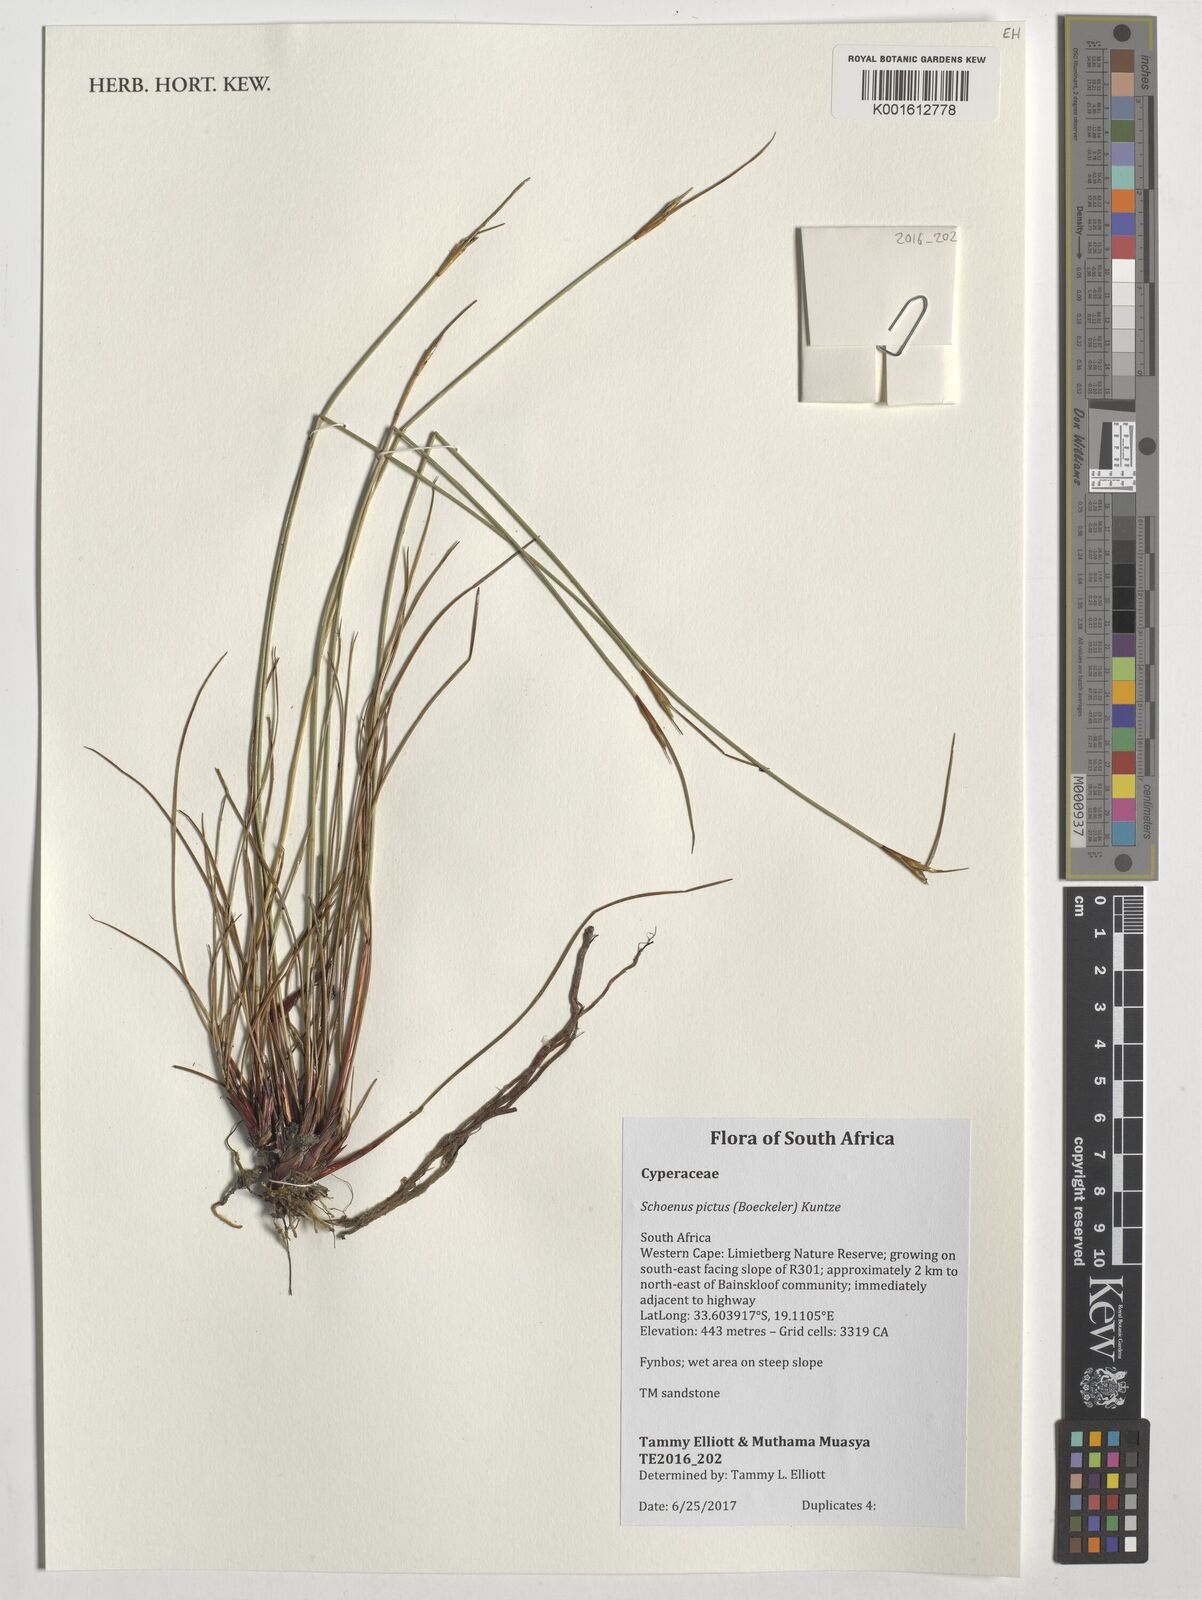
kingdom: Plantae
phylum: Tracheophyta
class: Liliopsida
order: Poales
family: Cyperaceae
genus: Schoenus
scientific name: Schoenus pictus
